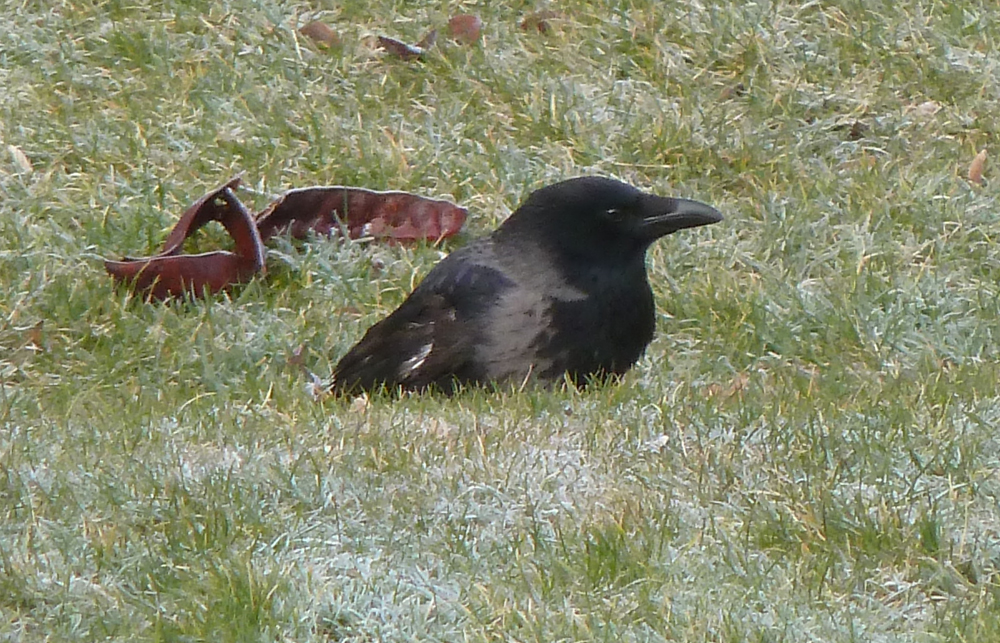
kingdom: Animalia
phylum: Chordata
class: Aves
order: Passeriformes
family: Corvidae
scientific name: Corvidae
